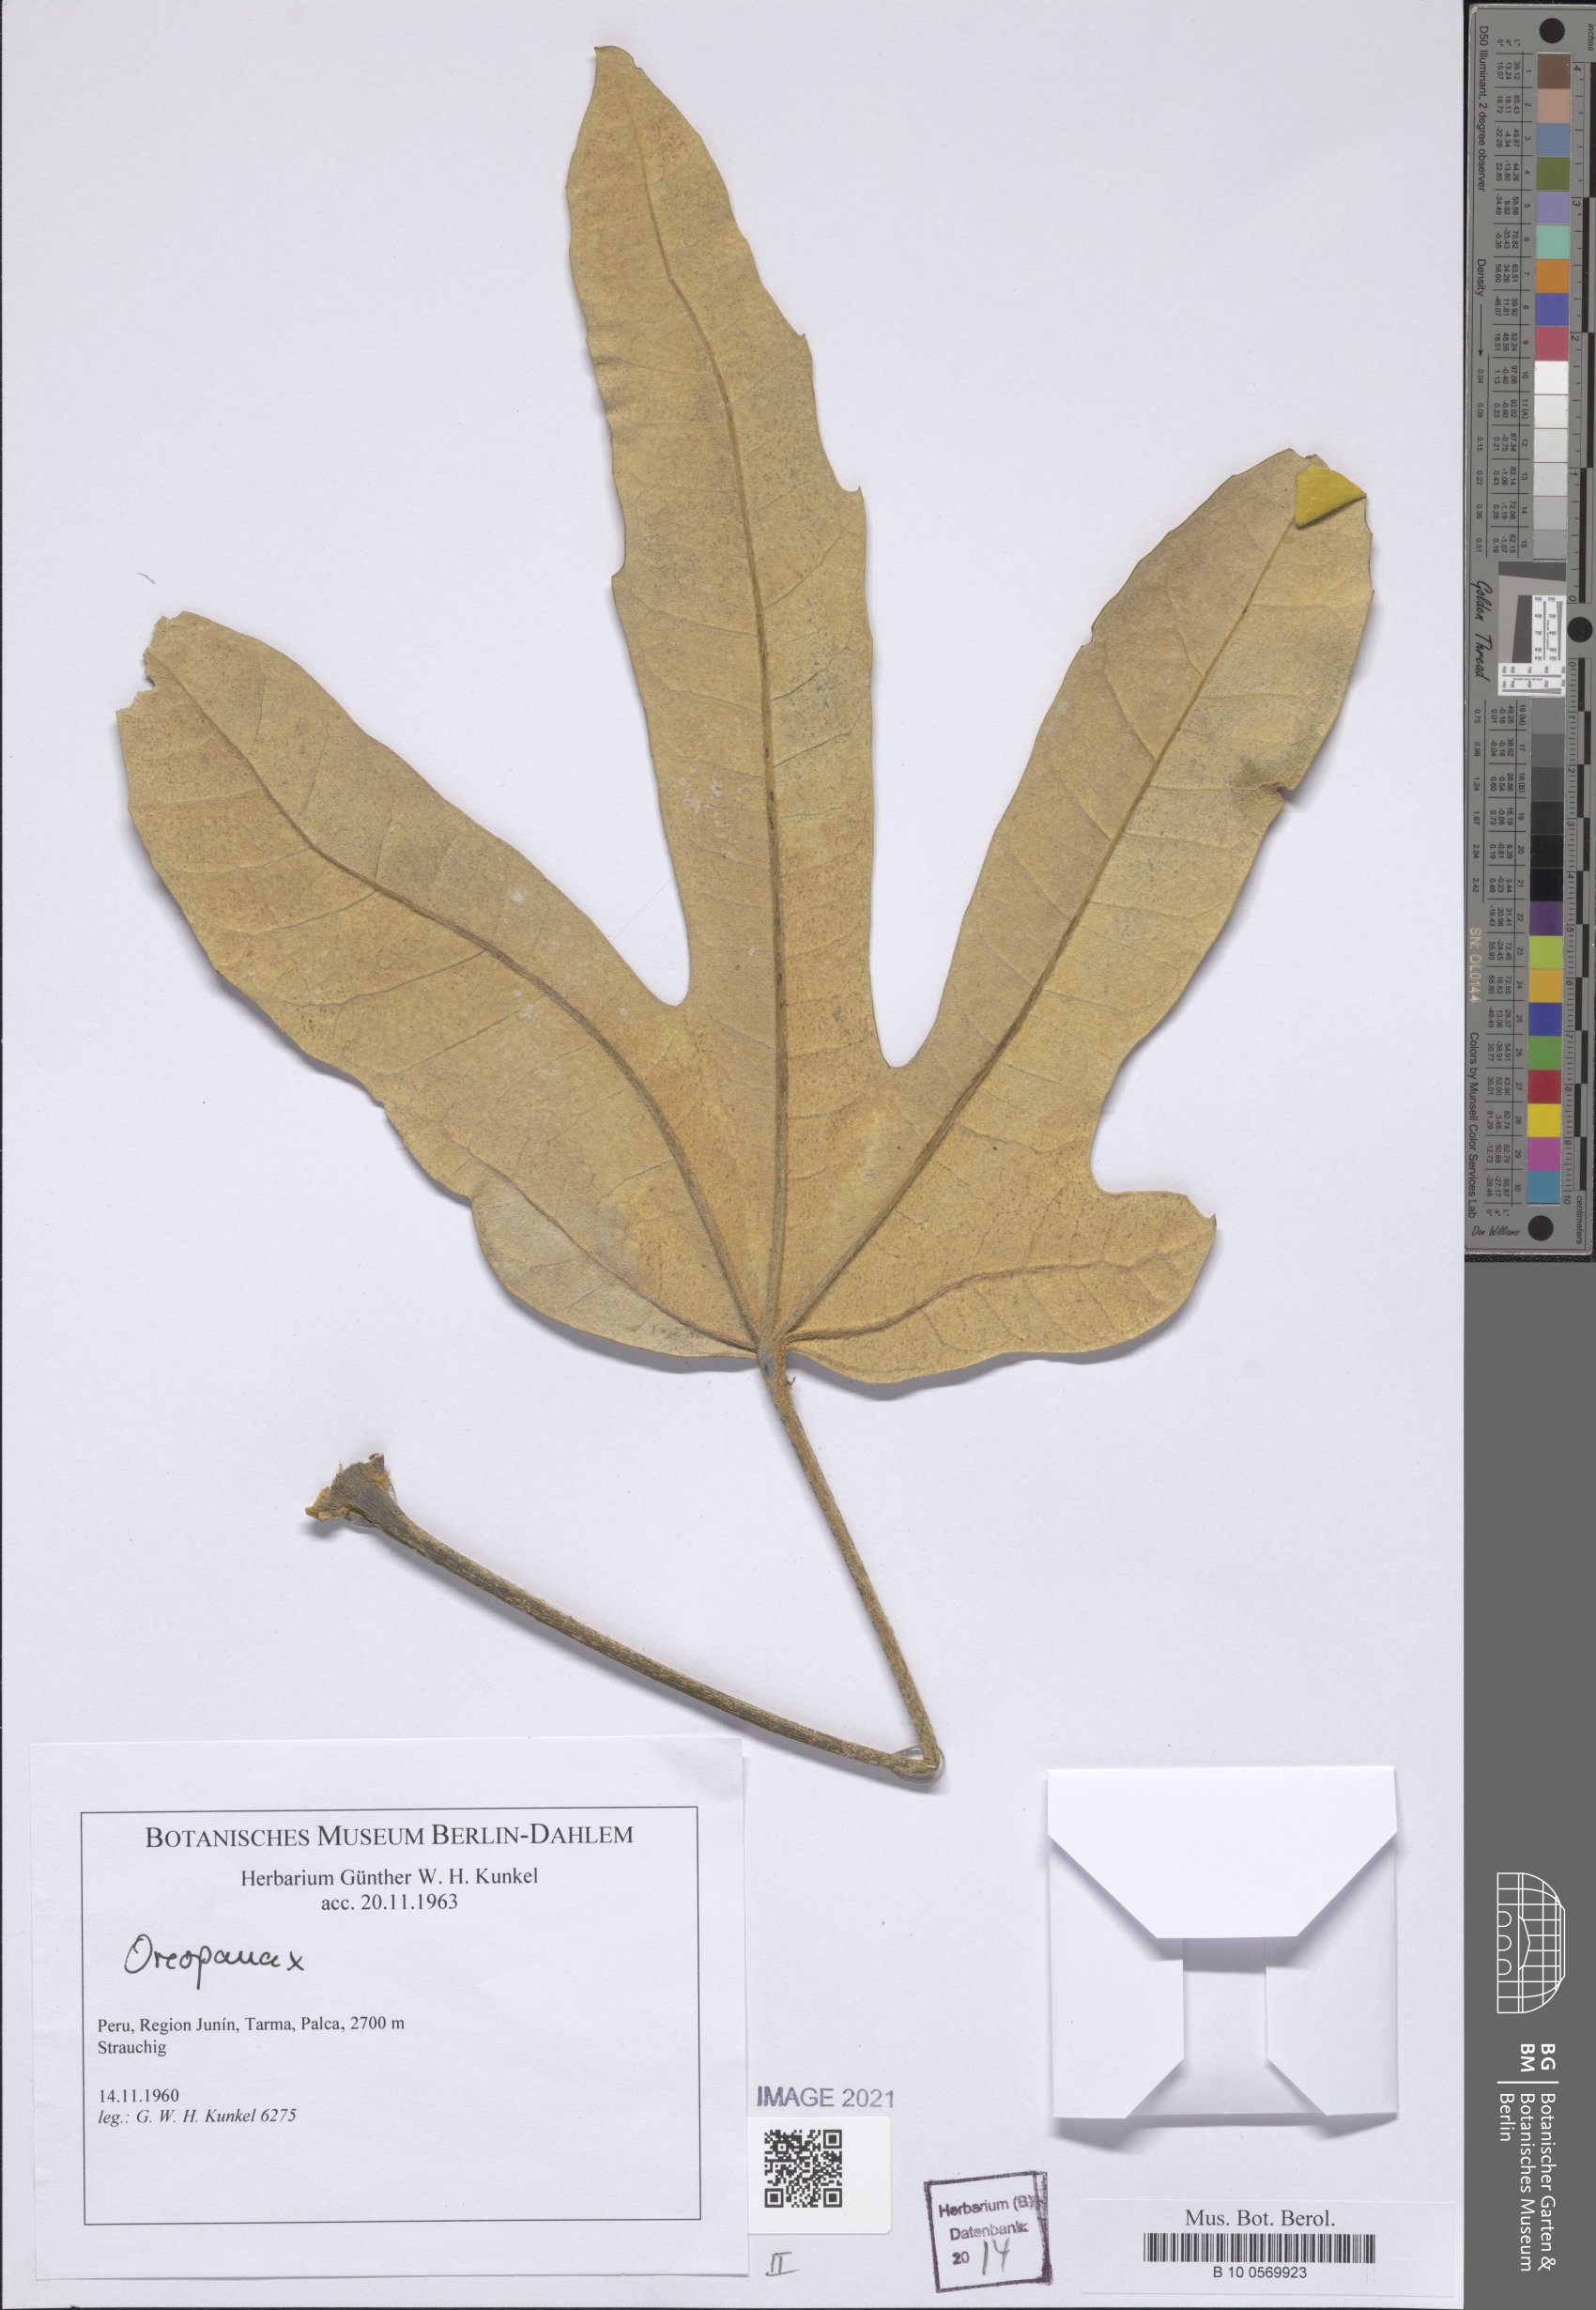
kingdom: Plantae
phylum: Tracheophyta
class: Magnoliopsida
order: Apiales
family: Araliaceae
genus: Oreopanax
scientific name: Oreopanax
